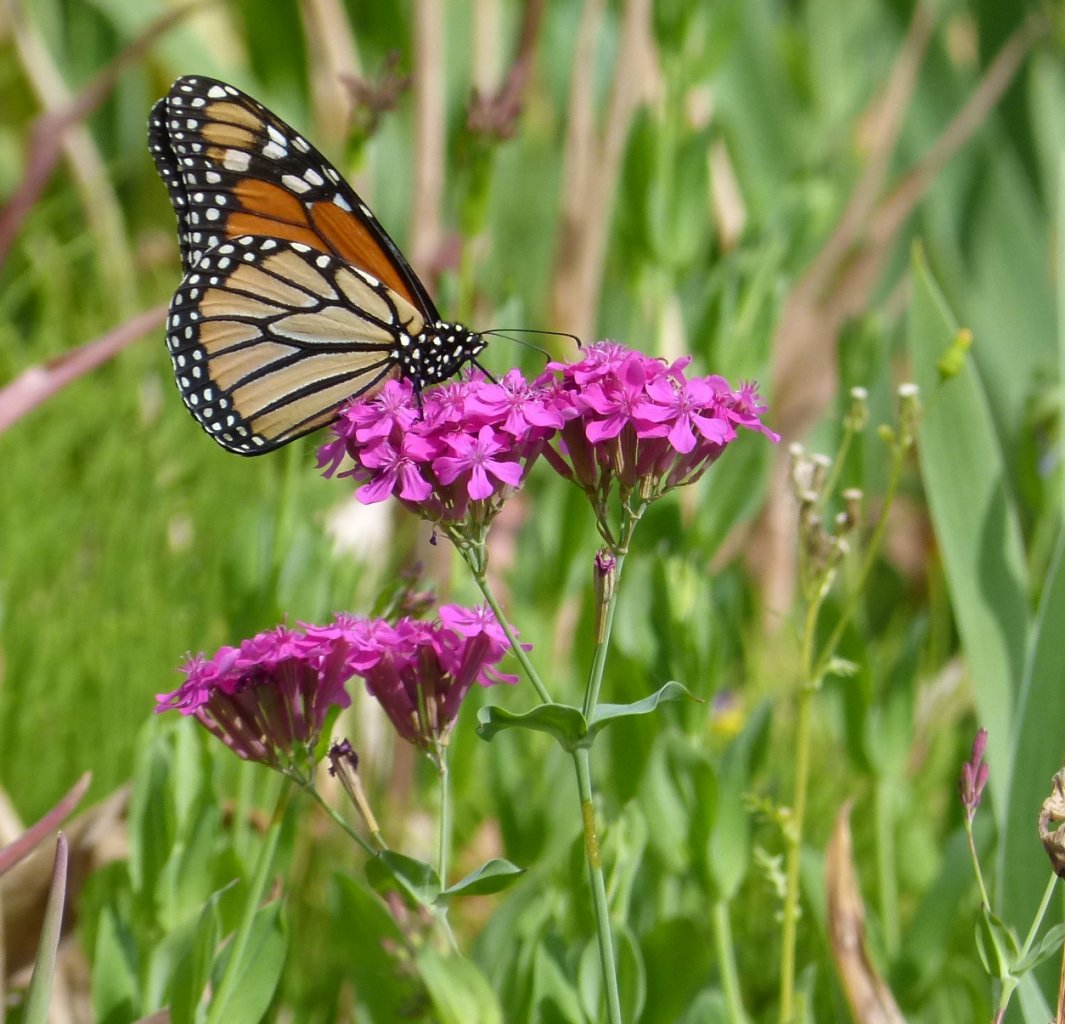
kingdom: Animalia
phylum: Arthropoda
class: Insecta
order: Lepidoptera
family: Nymphalidae
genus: Danaus
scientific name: Danaus plexippus
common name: Monarch
